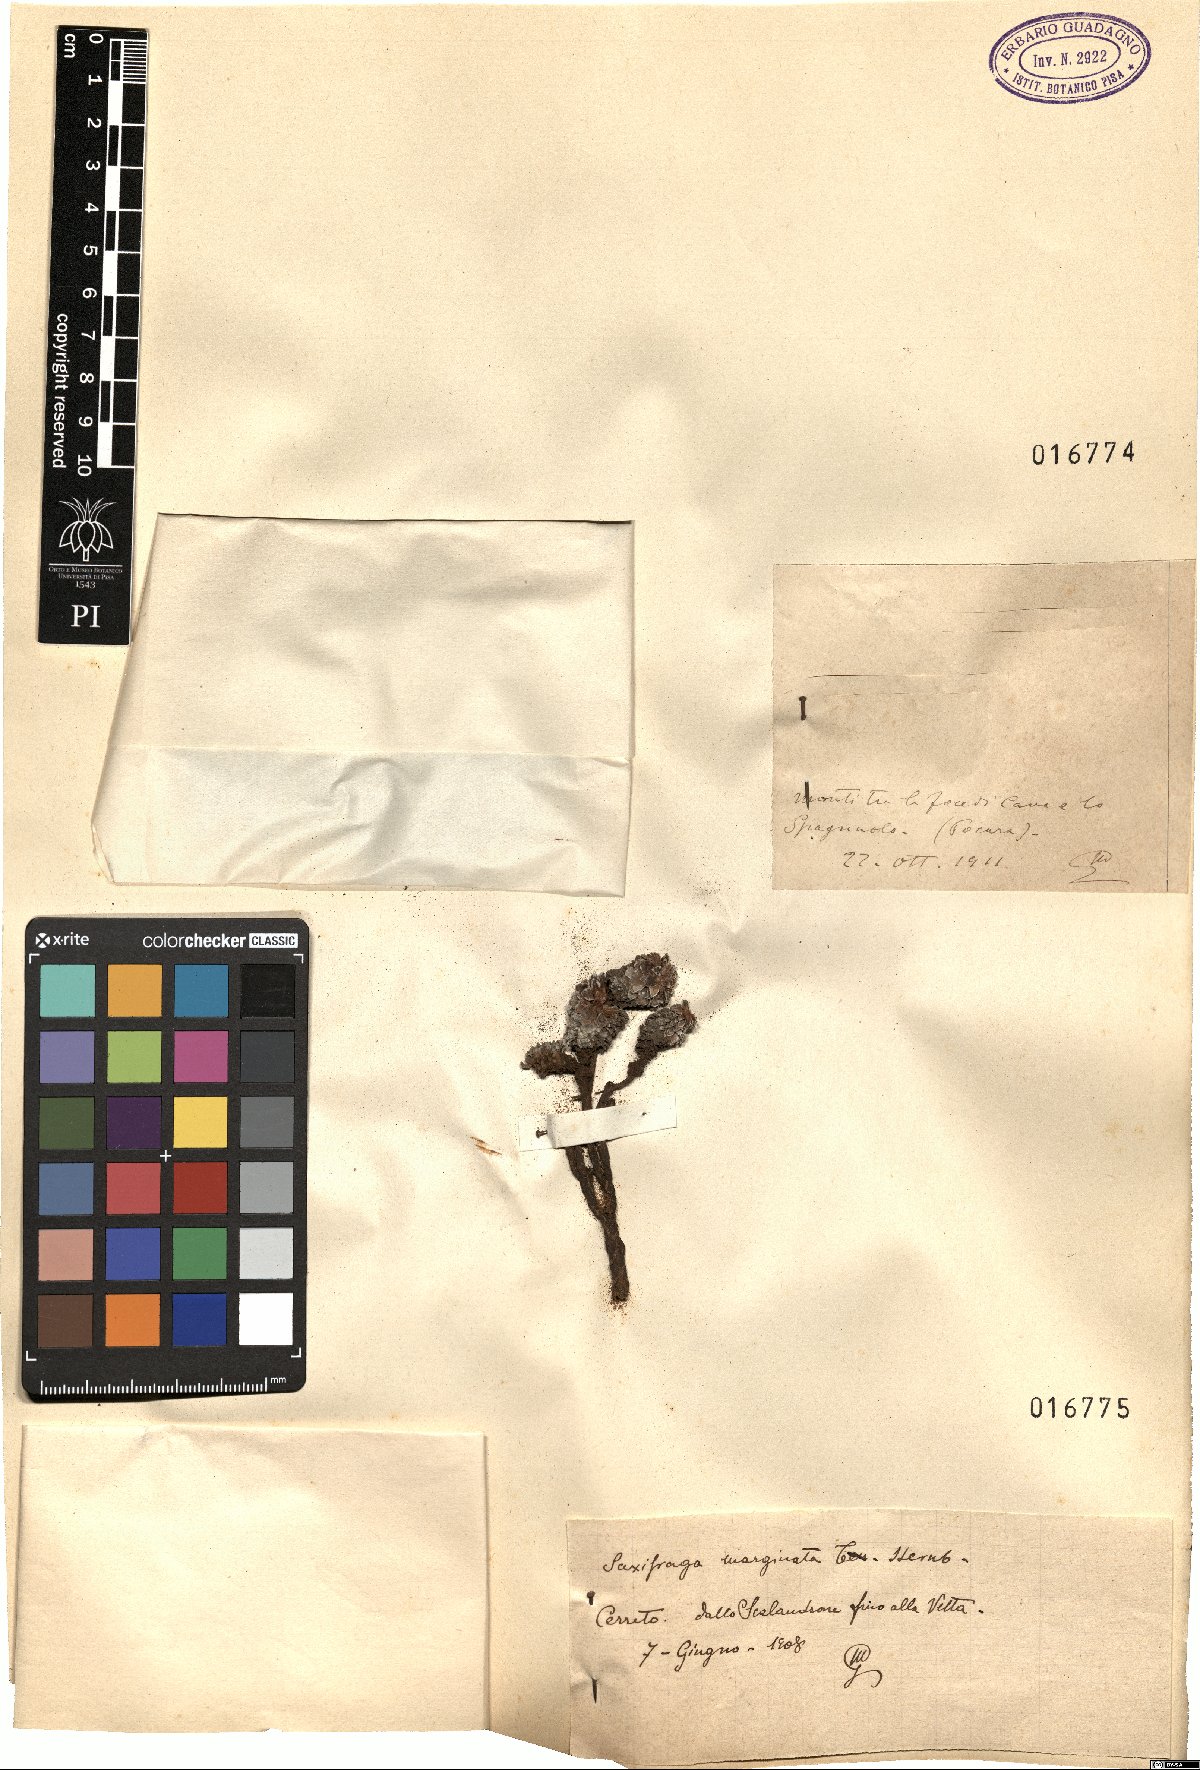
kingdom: Plantae
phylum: Tracheophyta
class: Magnoliopsida
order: Saxifragales
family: Saxifragaceae
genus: Saxifraga
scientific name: Saxifraga
